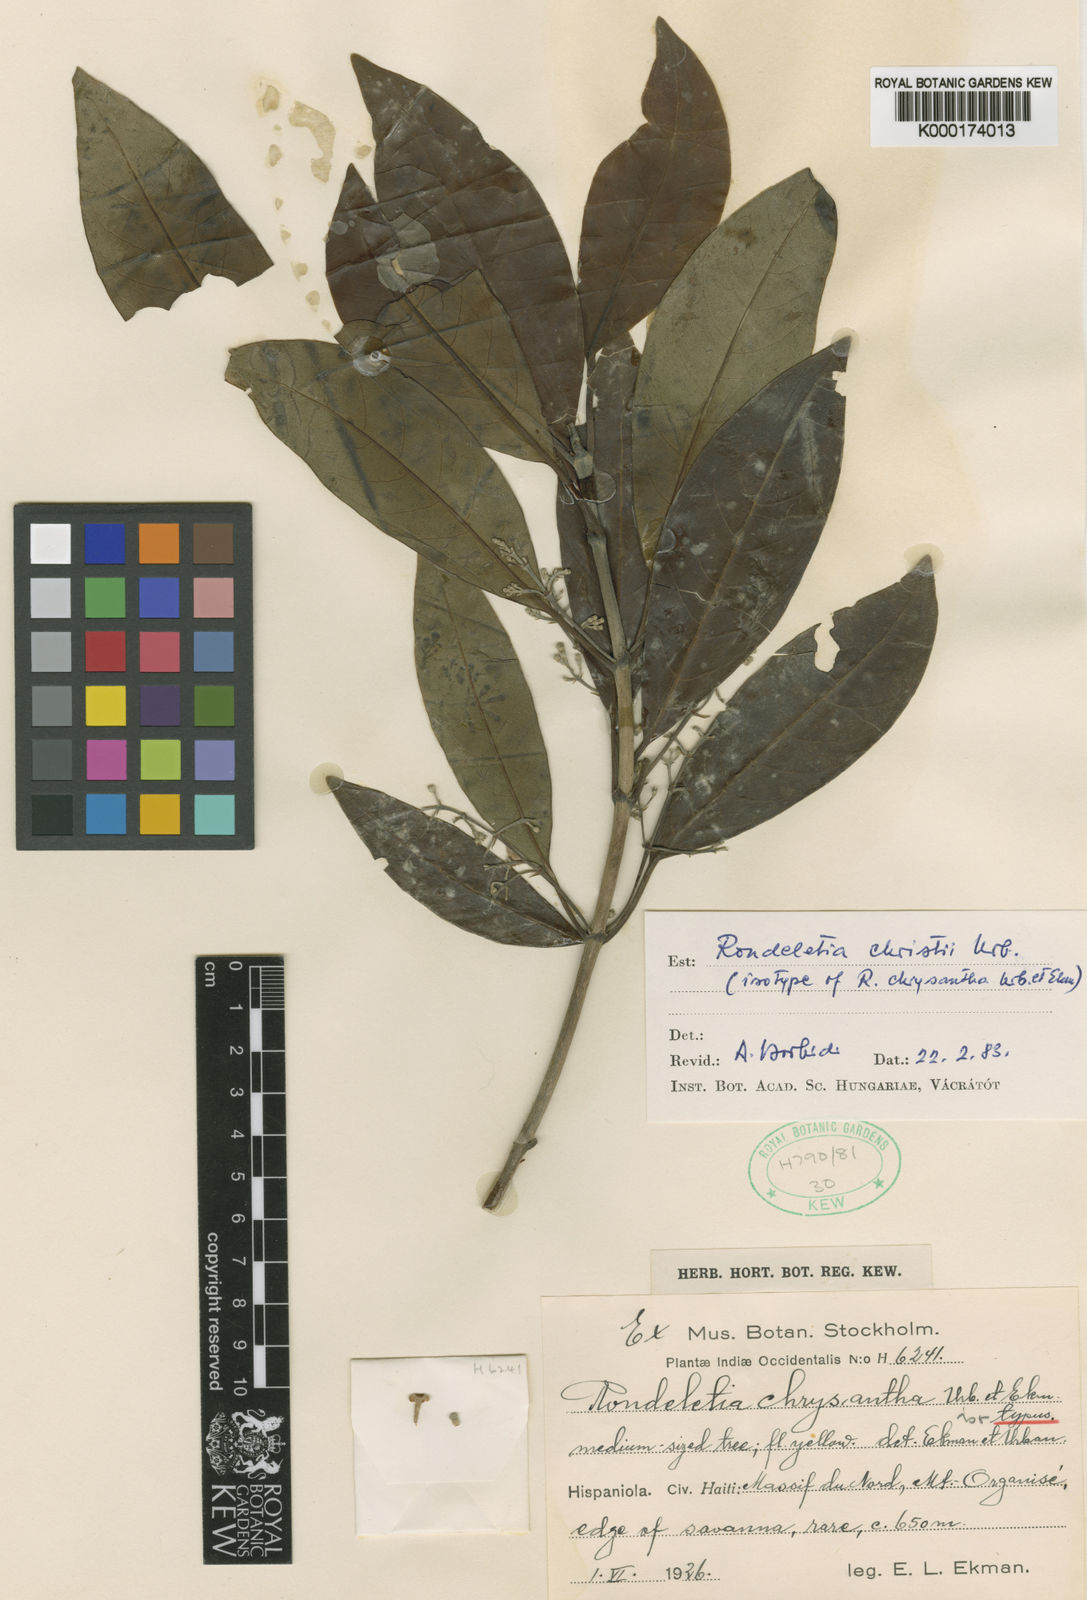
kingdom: Plantae
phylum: Tracheophyta
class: Magnoliopsida
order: Gentianales
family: Rubiaceae
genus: Rondeletia
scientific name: Rondeletia christii
